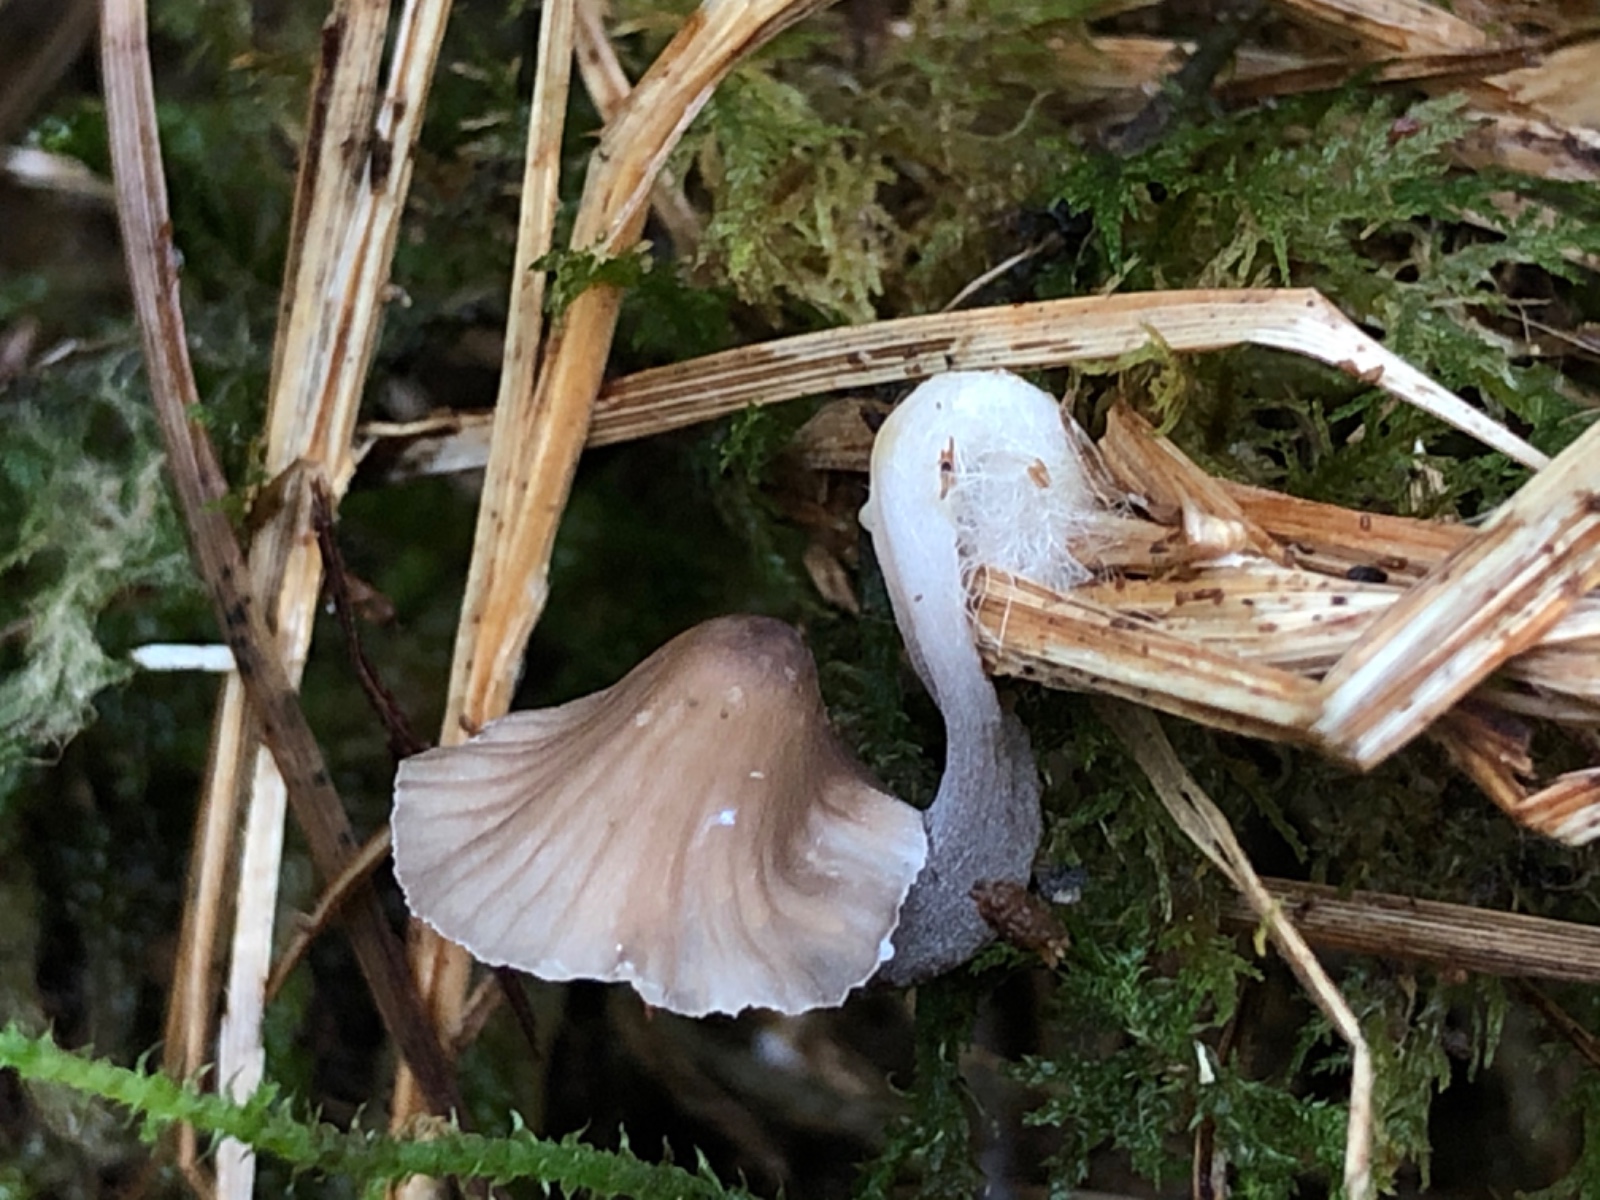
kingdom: Fungi
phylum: Basidiomycota
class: Agaricomycetes
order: Agaricales
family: Mycenaceae
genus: Mycena
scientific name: Mycena
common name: huesvamp
